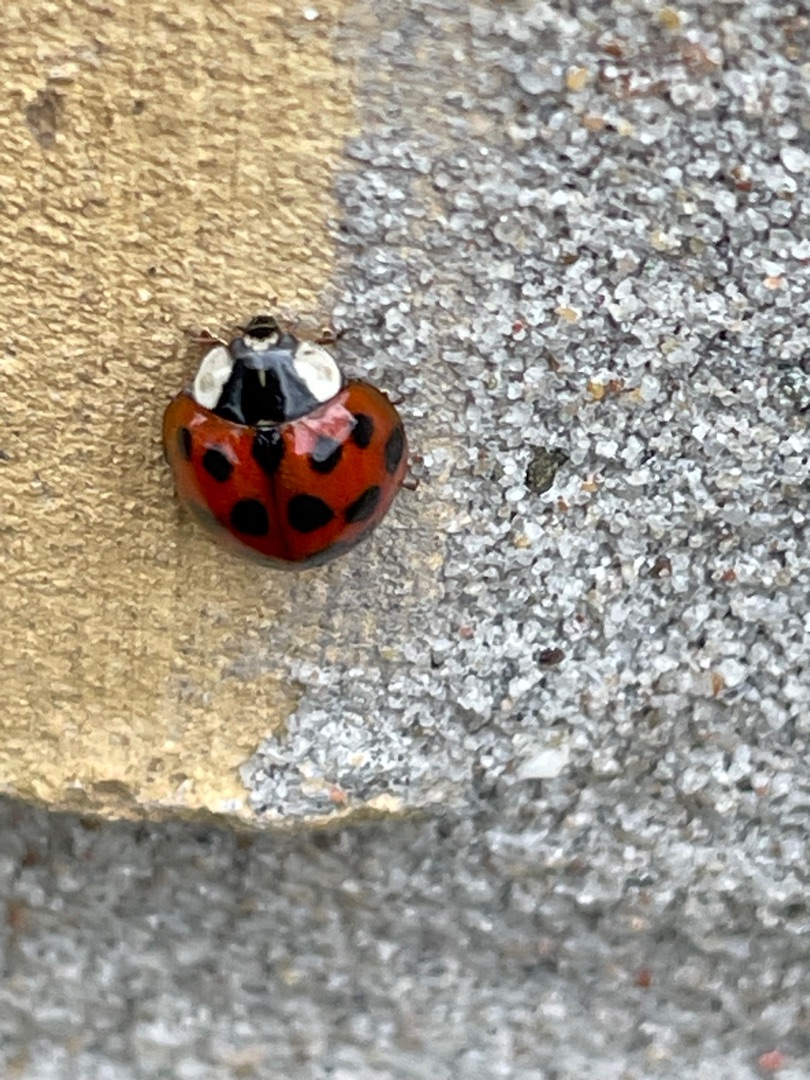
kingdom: Animalia
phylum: Arthropoda
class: Insecta
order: Coleoptera
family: Coccinellidae
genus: Harmonia
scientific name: Harmonia axyridis
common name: Harlekinmariehøne
